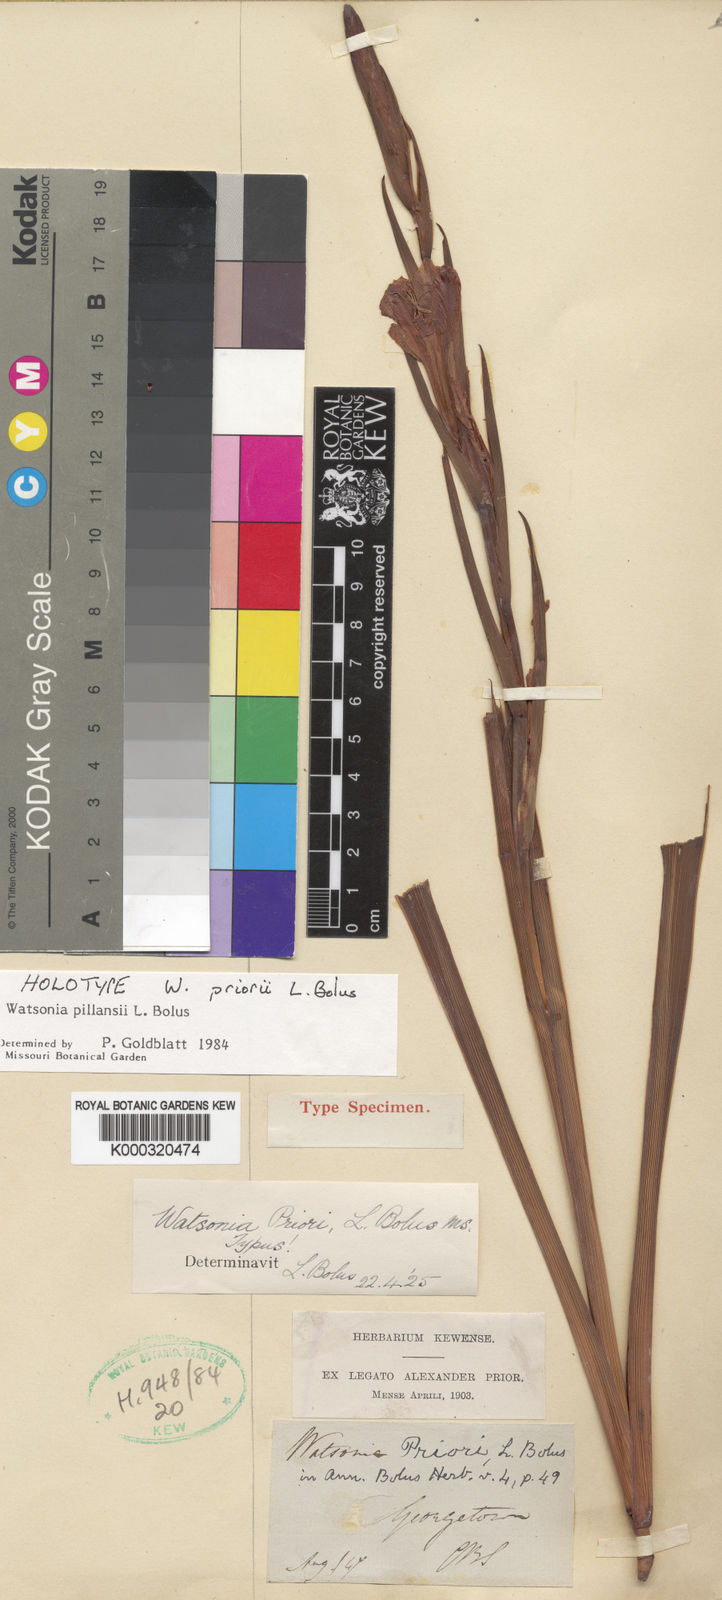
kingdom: Plantae
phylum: Tracheophyta
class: Liliopsida
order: Asparagales
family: Iridaceae
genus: Watsonia
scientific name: Watsonia pillansii
